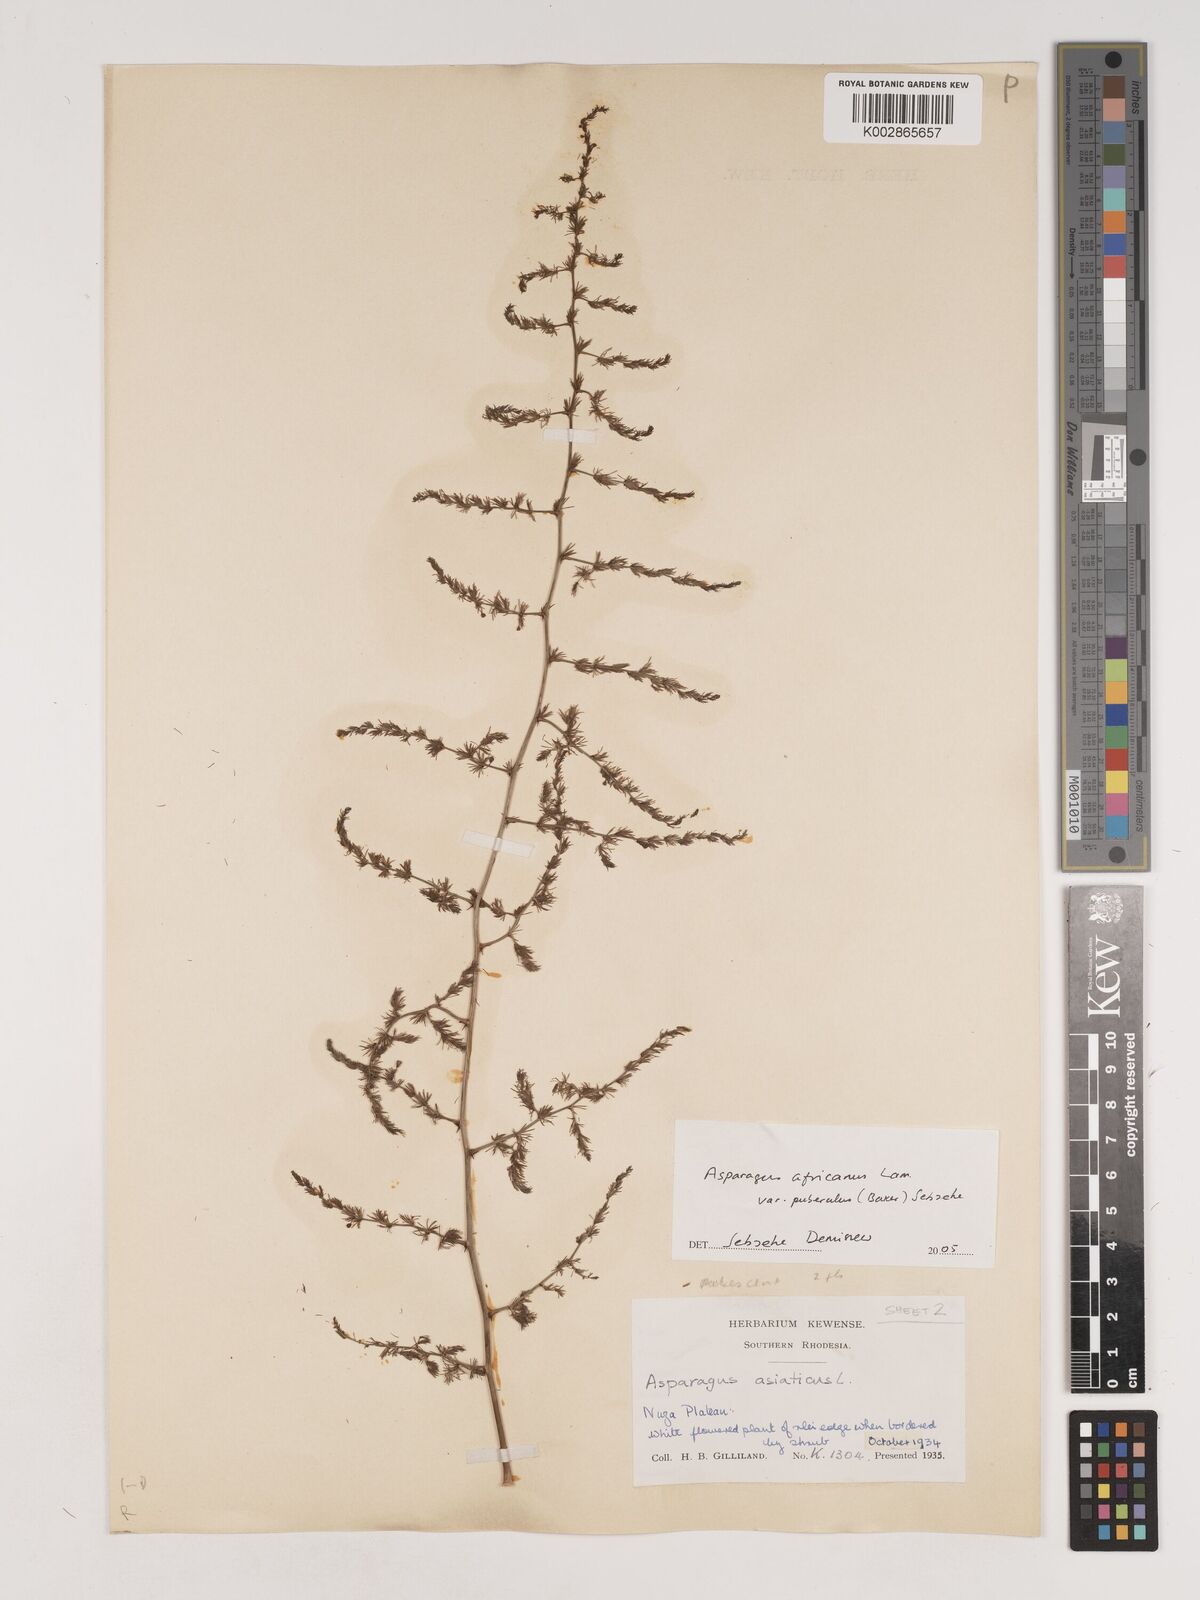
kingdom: Plantae
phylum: Tracheophyta
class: Liliopsida
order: Asparagales
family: Asparagaceae
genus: Asparagus
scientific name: Asparagus africanus
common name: Asparagus-fern
